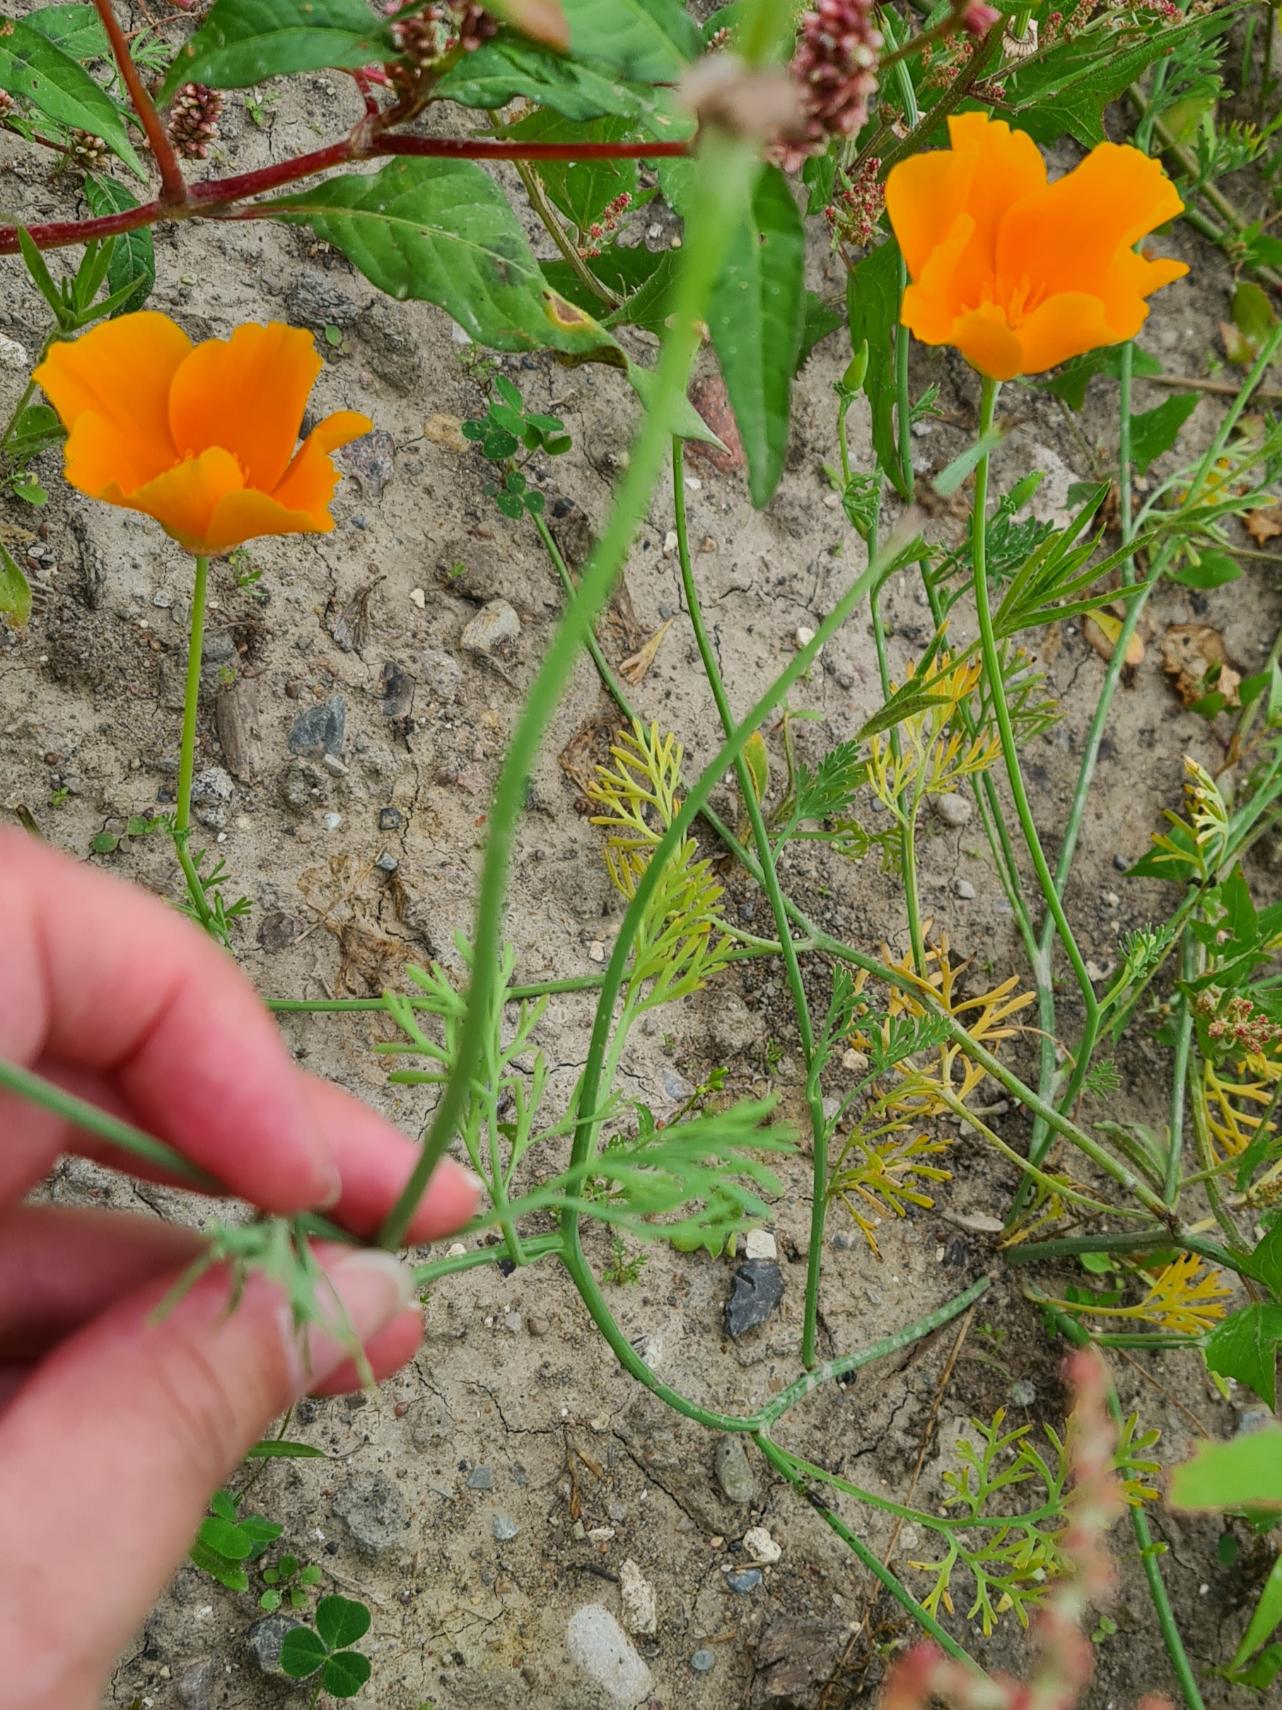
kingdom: Plantae
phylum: Tracheophyta
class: Magnoliopsida
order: Ranunculales
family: Papaveraceae
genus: Eschscholzia
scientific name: Eschscholzia californica
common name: Guldvalmue
